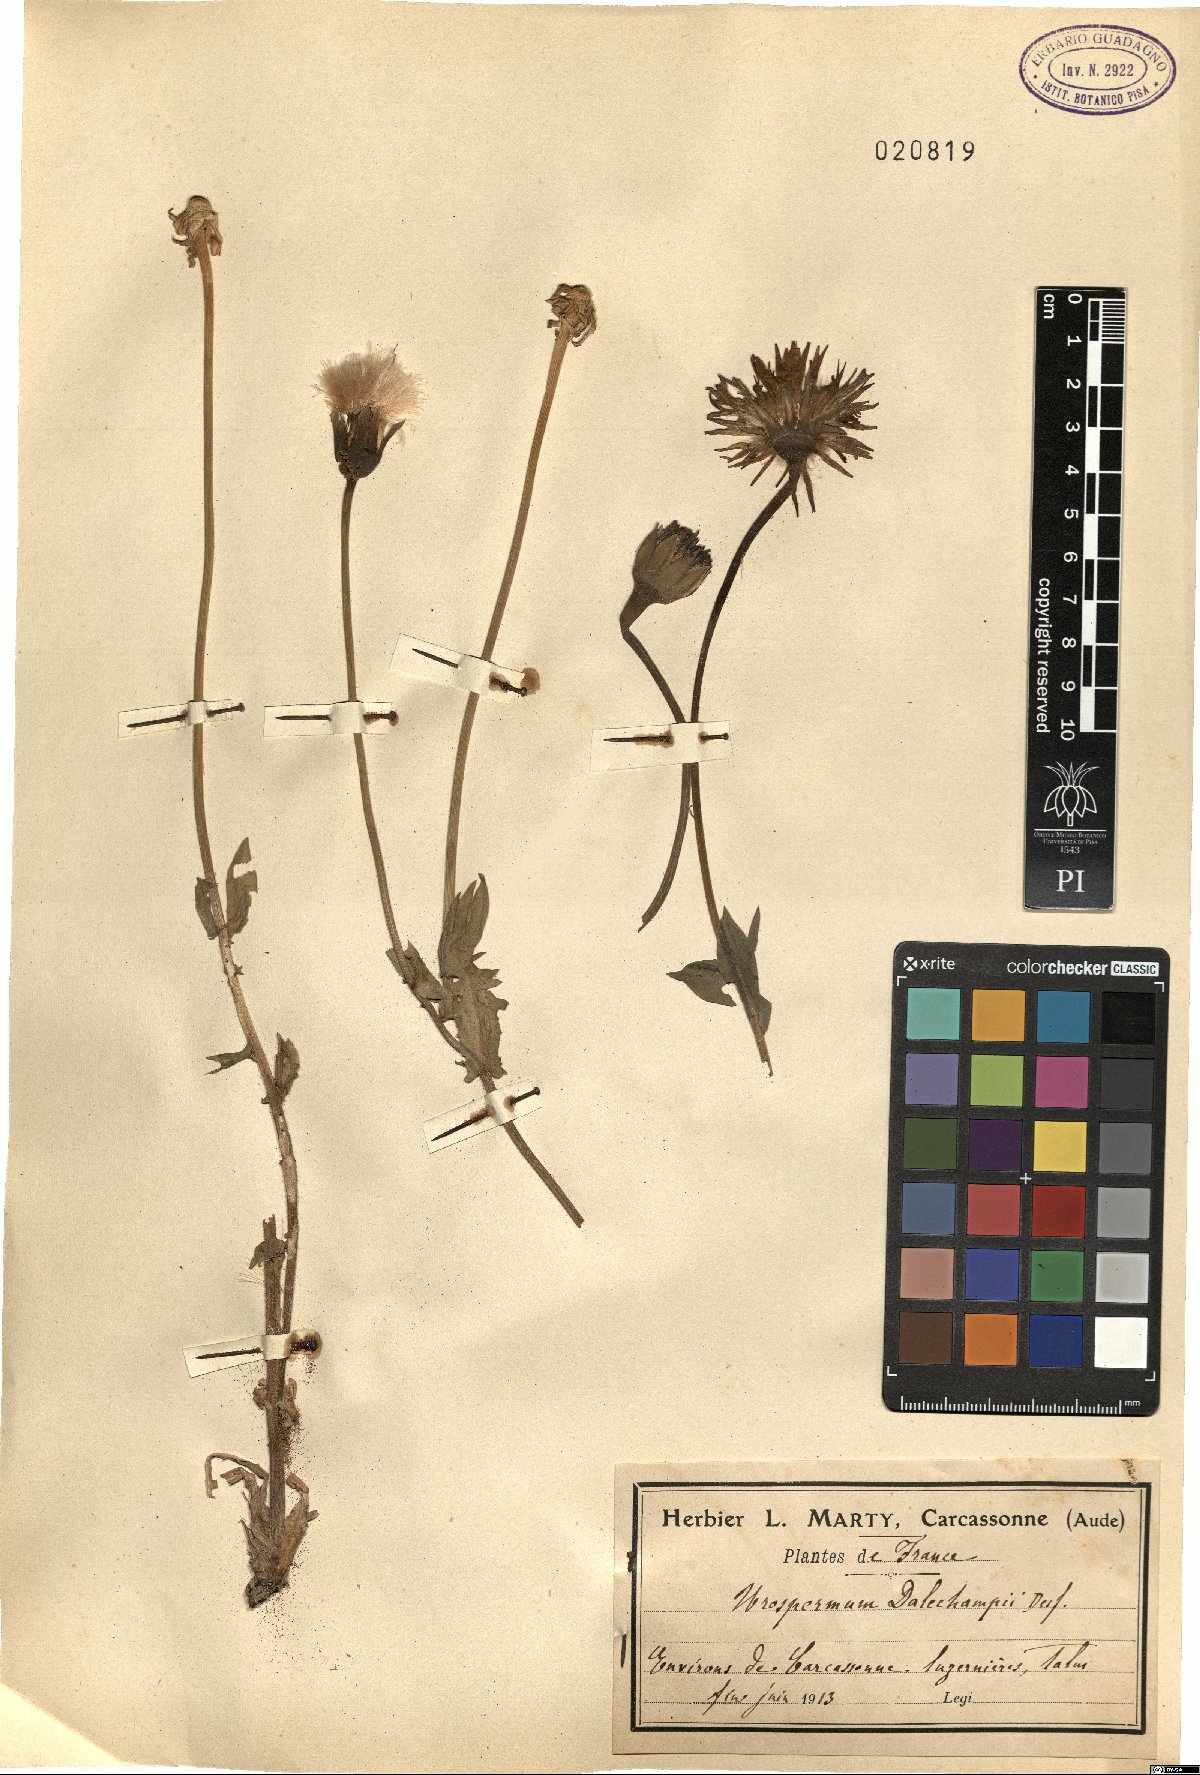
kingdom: Plantae
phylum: Tracheophyta
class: Magnoliopsida
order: Asterales
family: Asteraceae
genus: Urospermum
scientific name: Urospermum dalechampii
